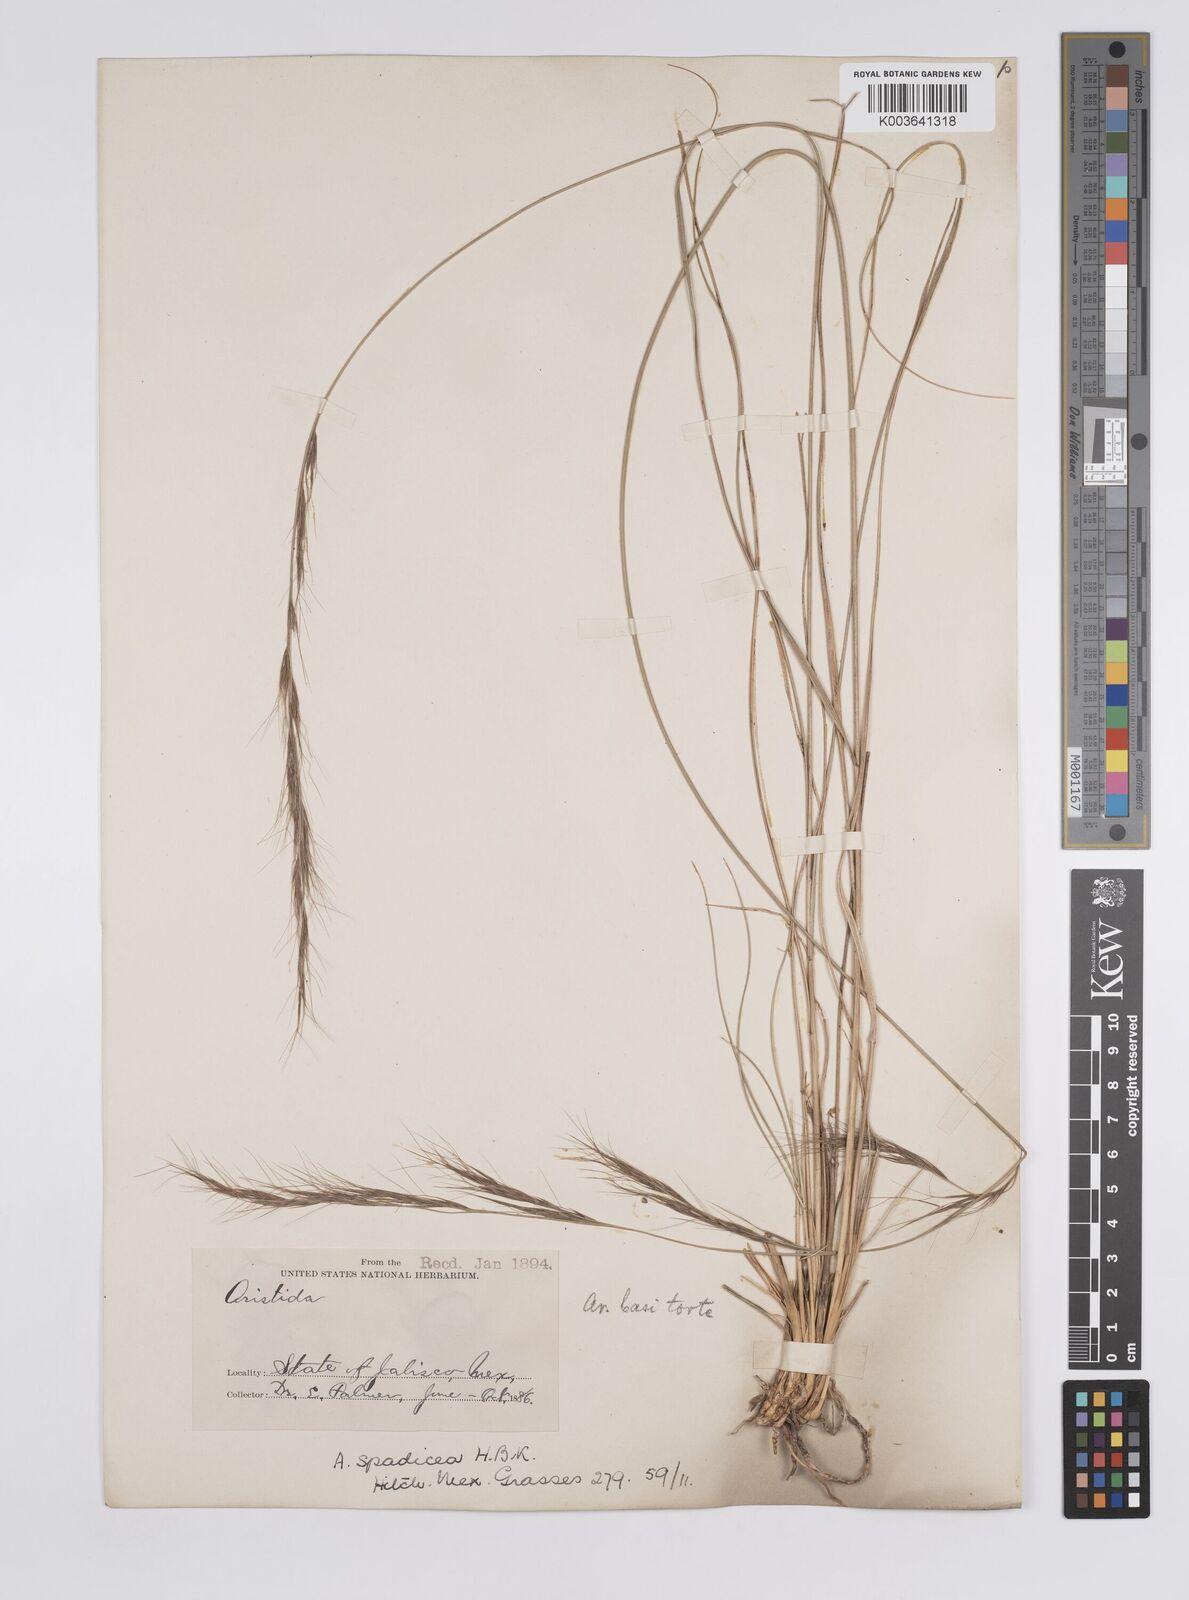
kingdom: Plantae
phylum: Tracheophyta
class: Liliopsida
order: Poales
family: Poaceae
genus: Aristida
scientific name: Aristida laxa
